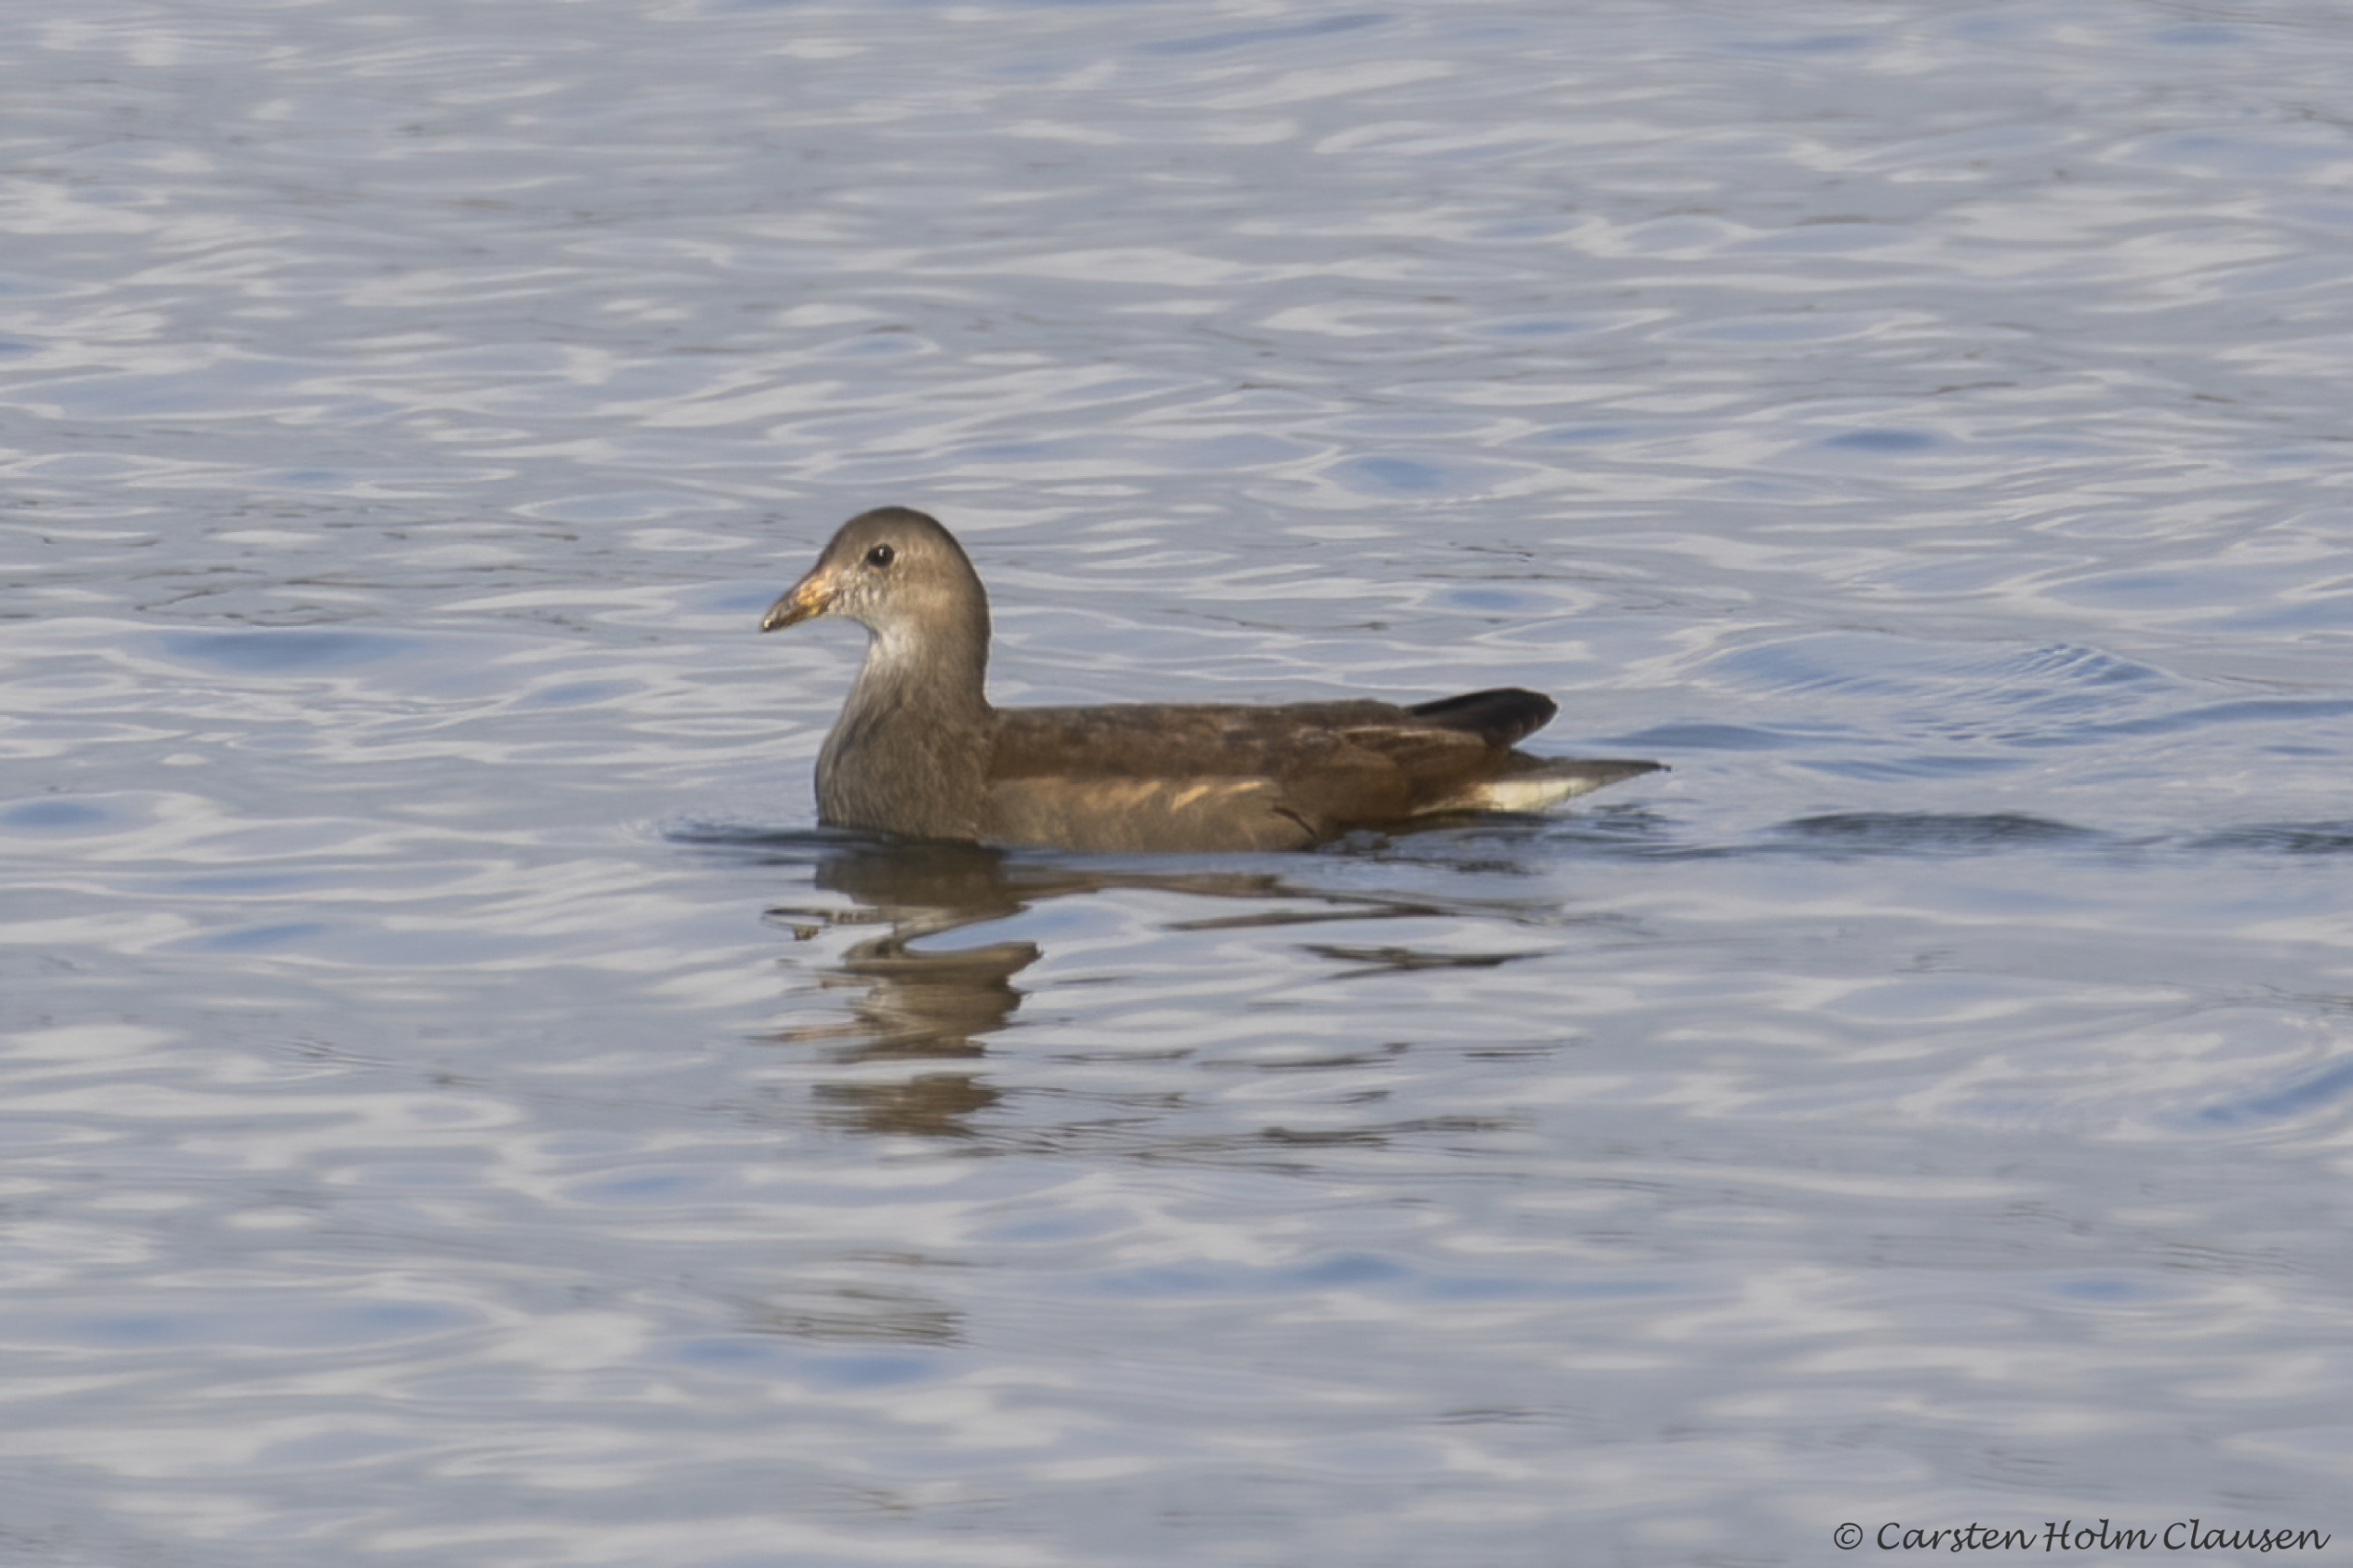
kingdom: Animalia
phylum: Chordata
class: Aves
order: Gruiformes
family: Rallidae
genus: Gallinula
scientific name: Gallinula chloropus
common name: Grønbenet rørhøne
